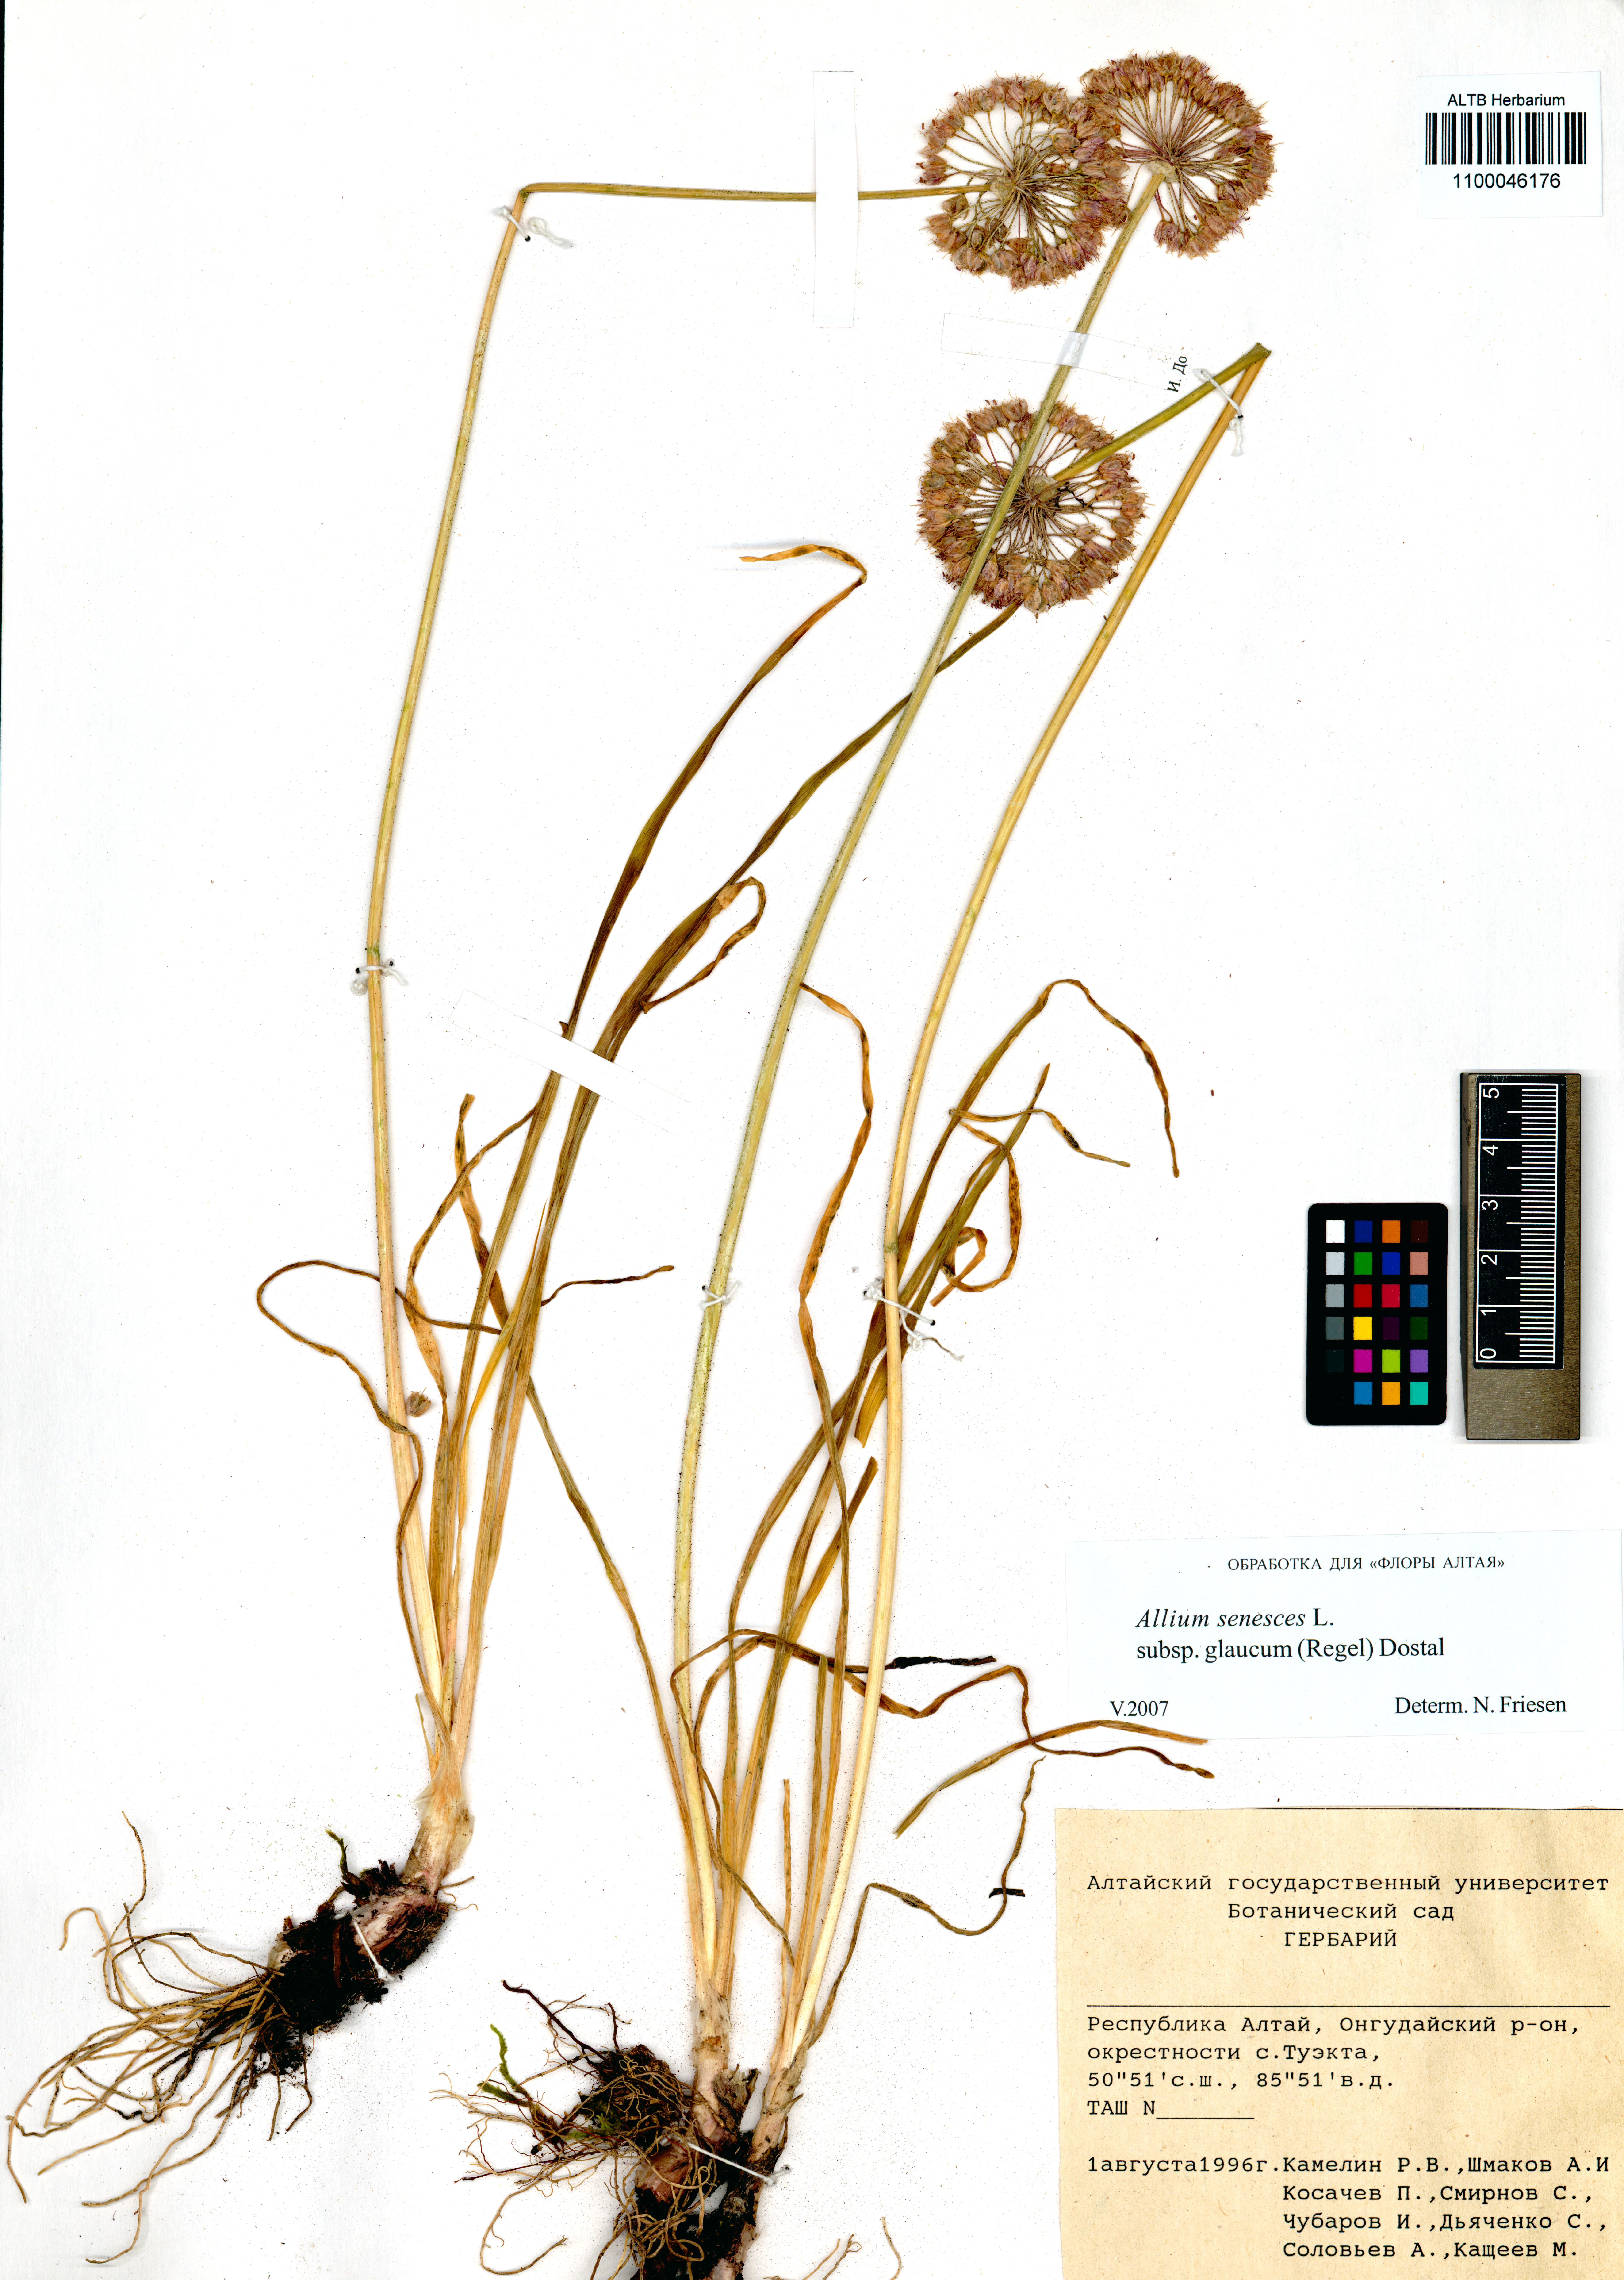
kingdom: Plantae
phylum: Tracheophyta
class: Liliopsida
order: Asparagales
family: Amaryllidaceae
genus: Allium
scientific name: Allium senescens
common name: German garlic
